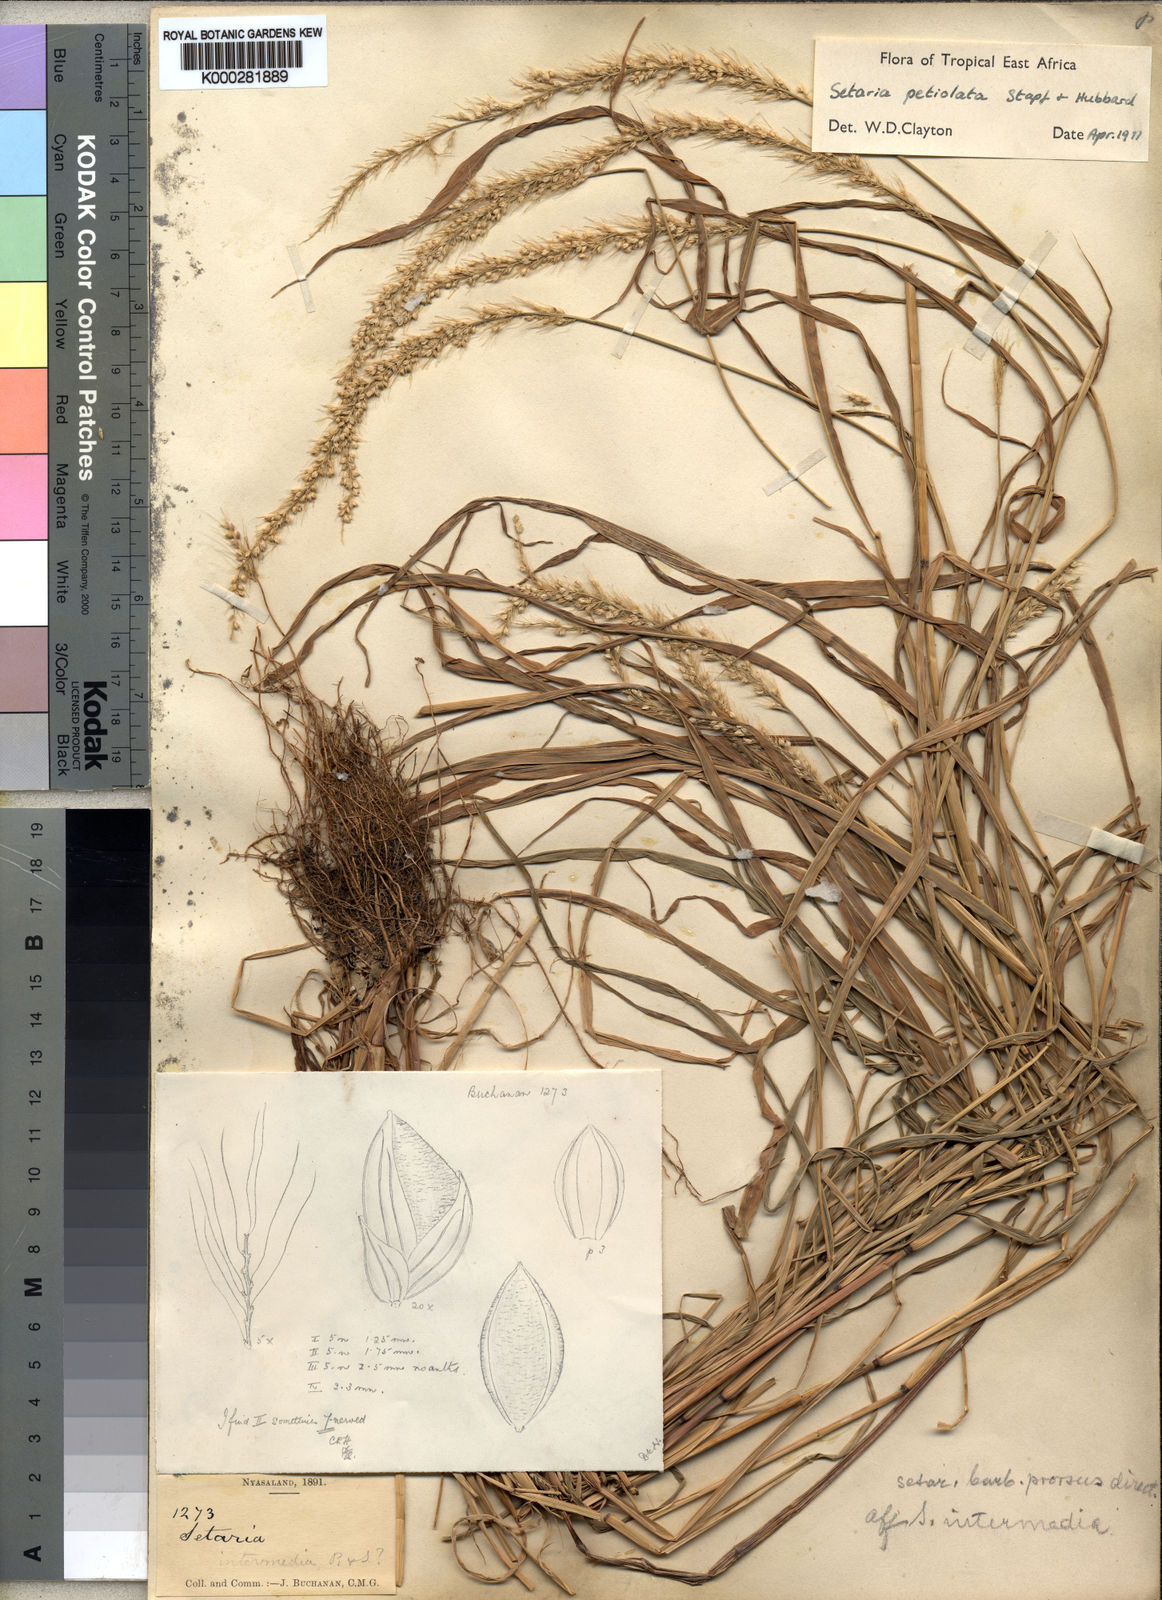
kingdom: Plantae
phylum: Tracheophyta
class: Liliopsida
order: Poales
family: Poaceae
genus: Setaria
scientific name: Setaria petiolata
